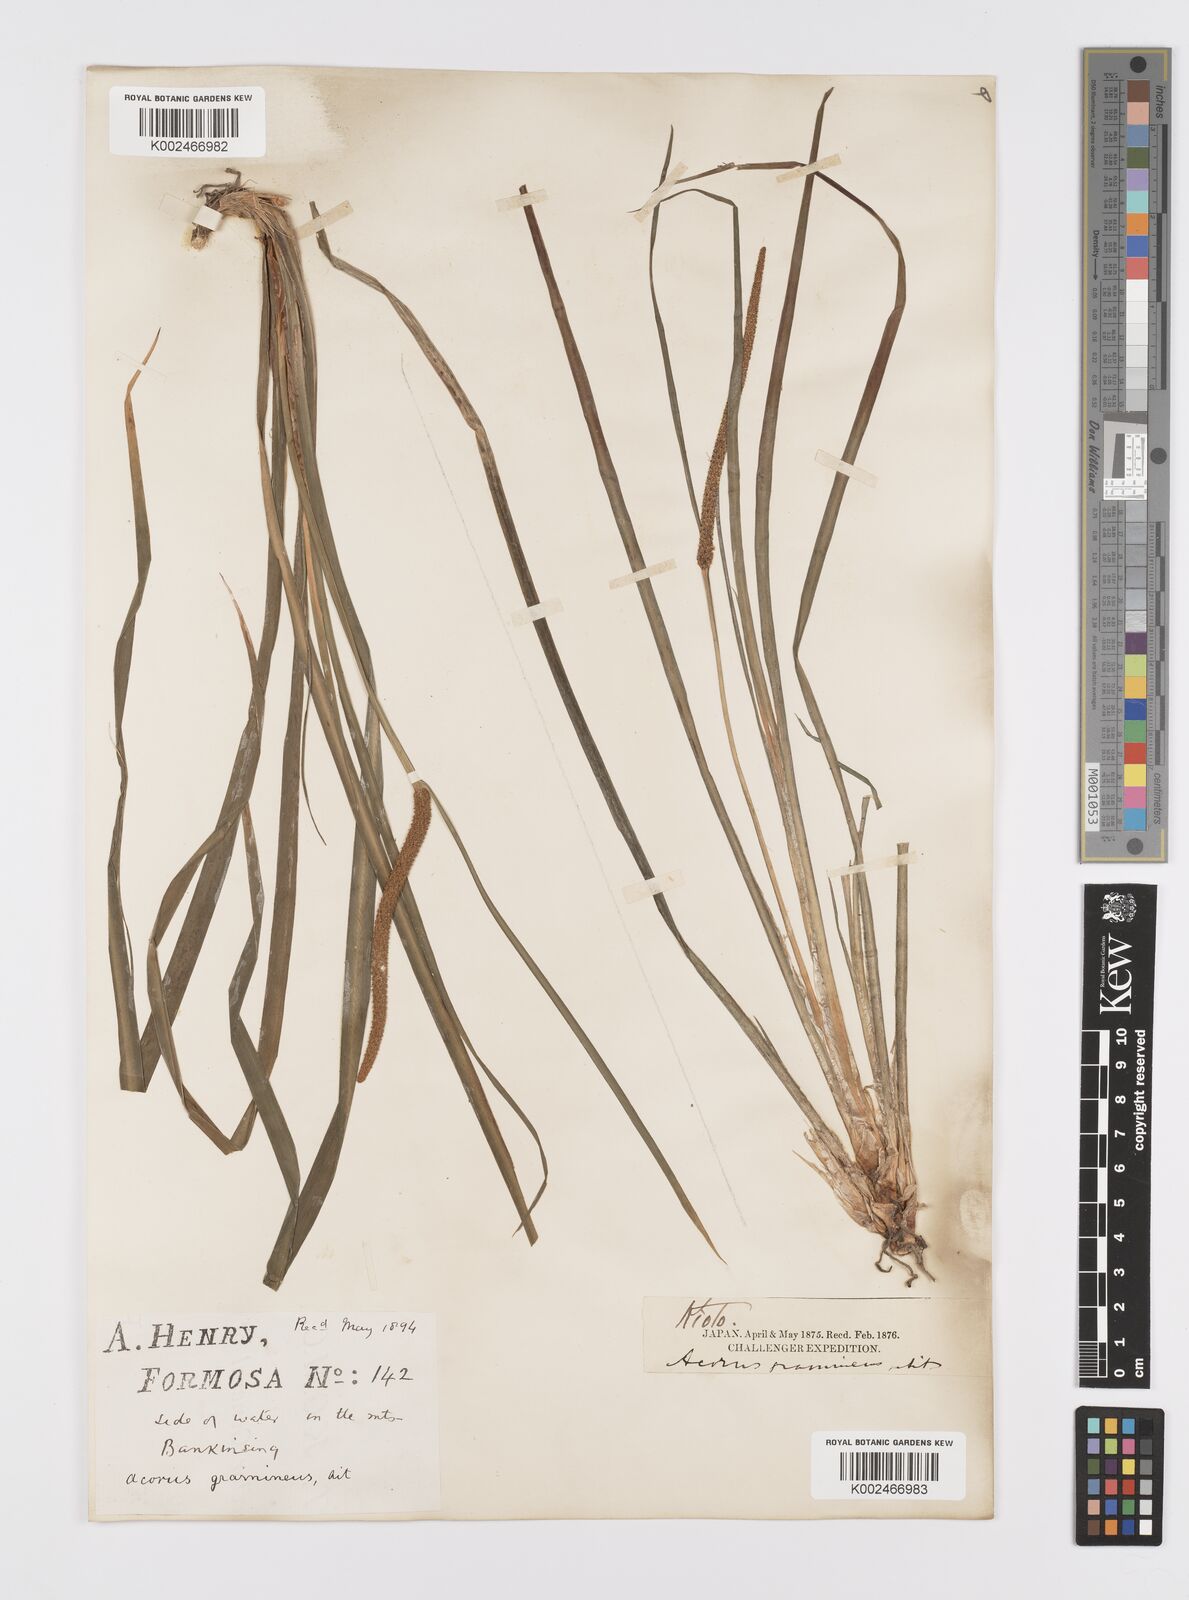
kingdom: Plantae
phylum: Tracheophyta
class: Liliopsida
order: Acorales
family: Acoraceae
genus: Acorus
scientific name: Acorus gramineus
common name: Slender sweet-flag
